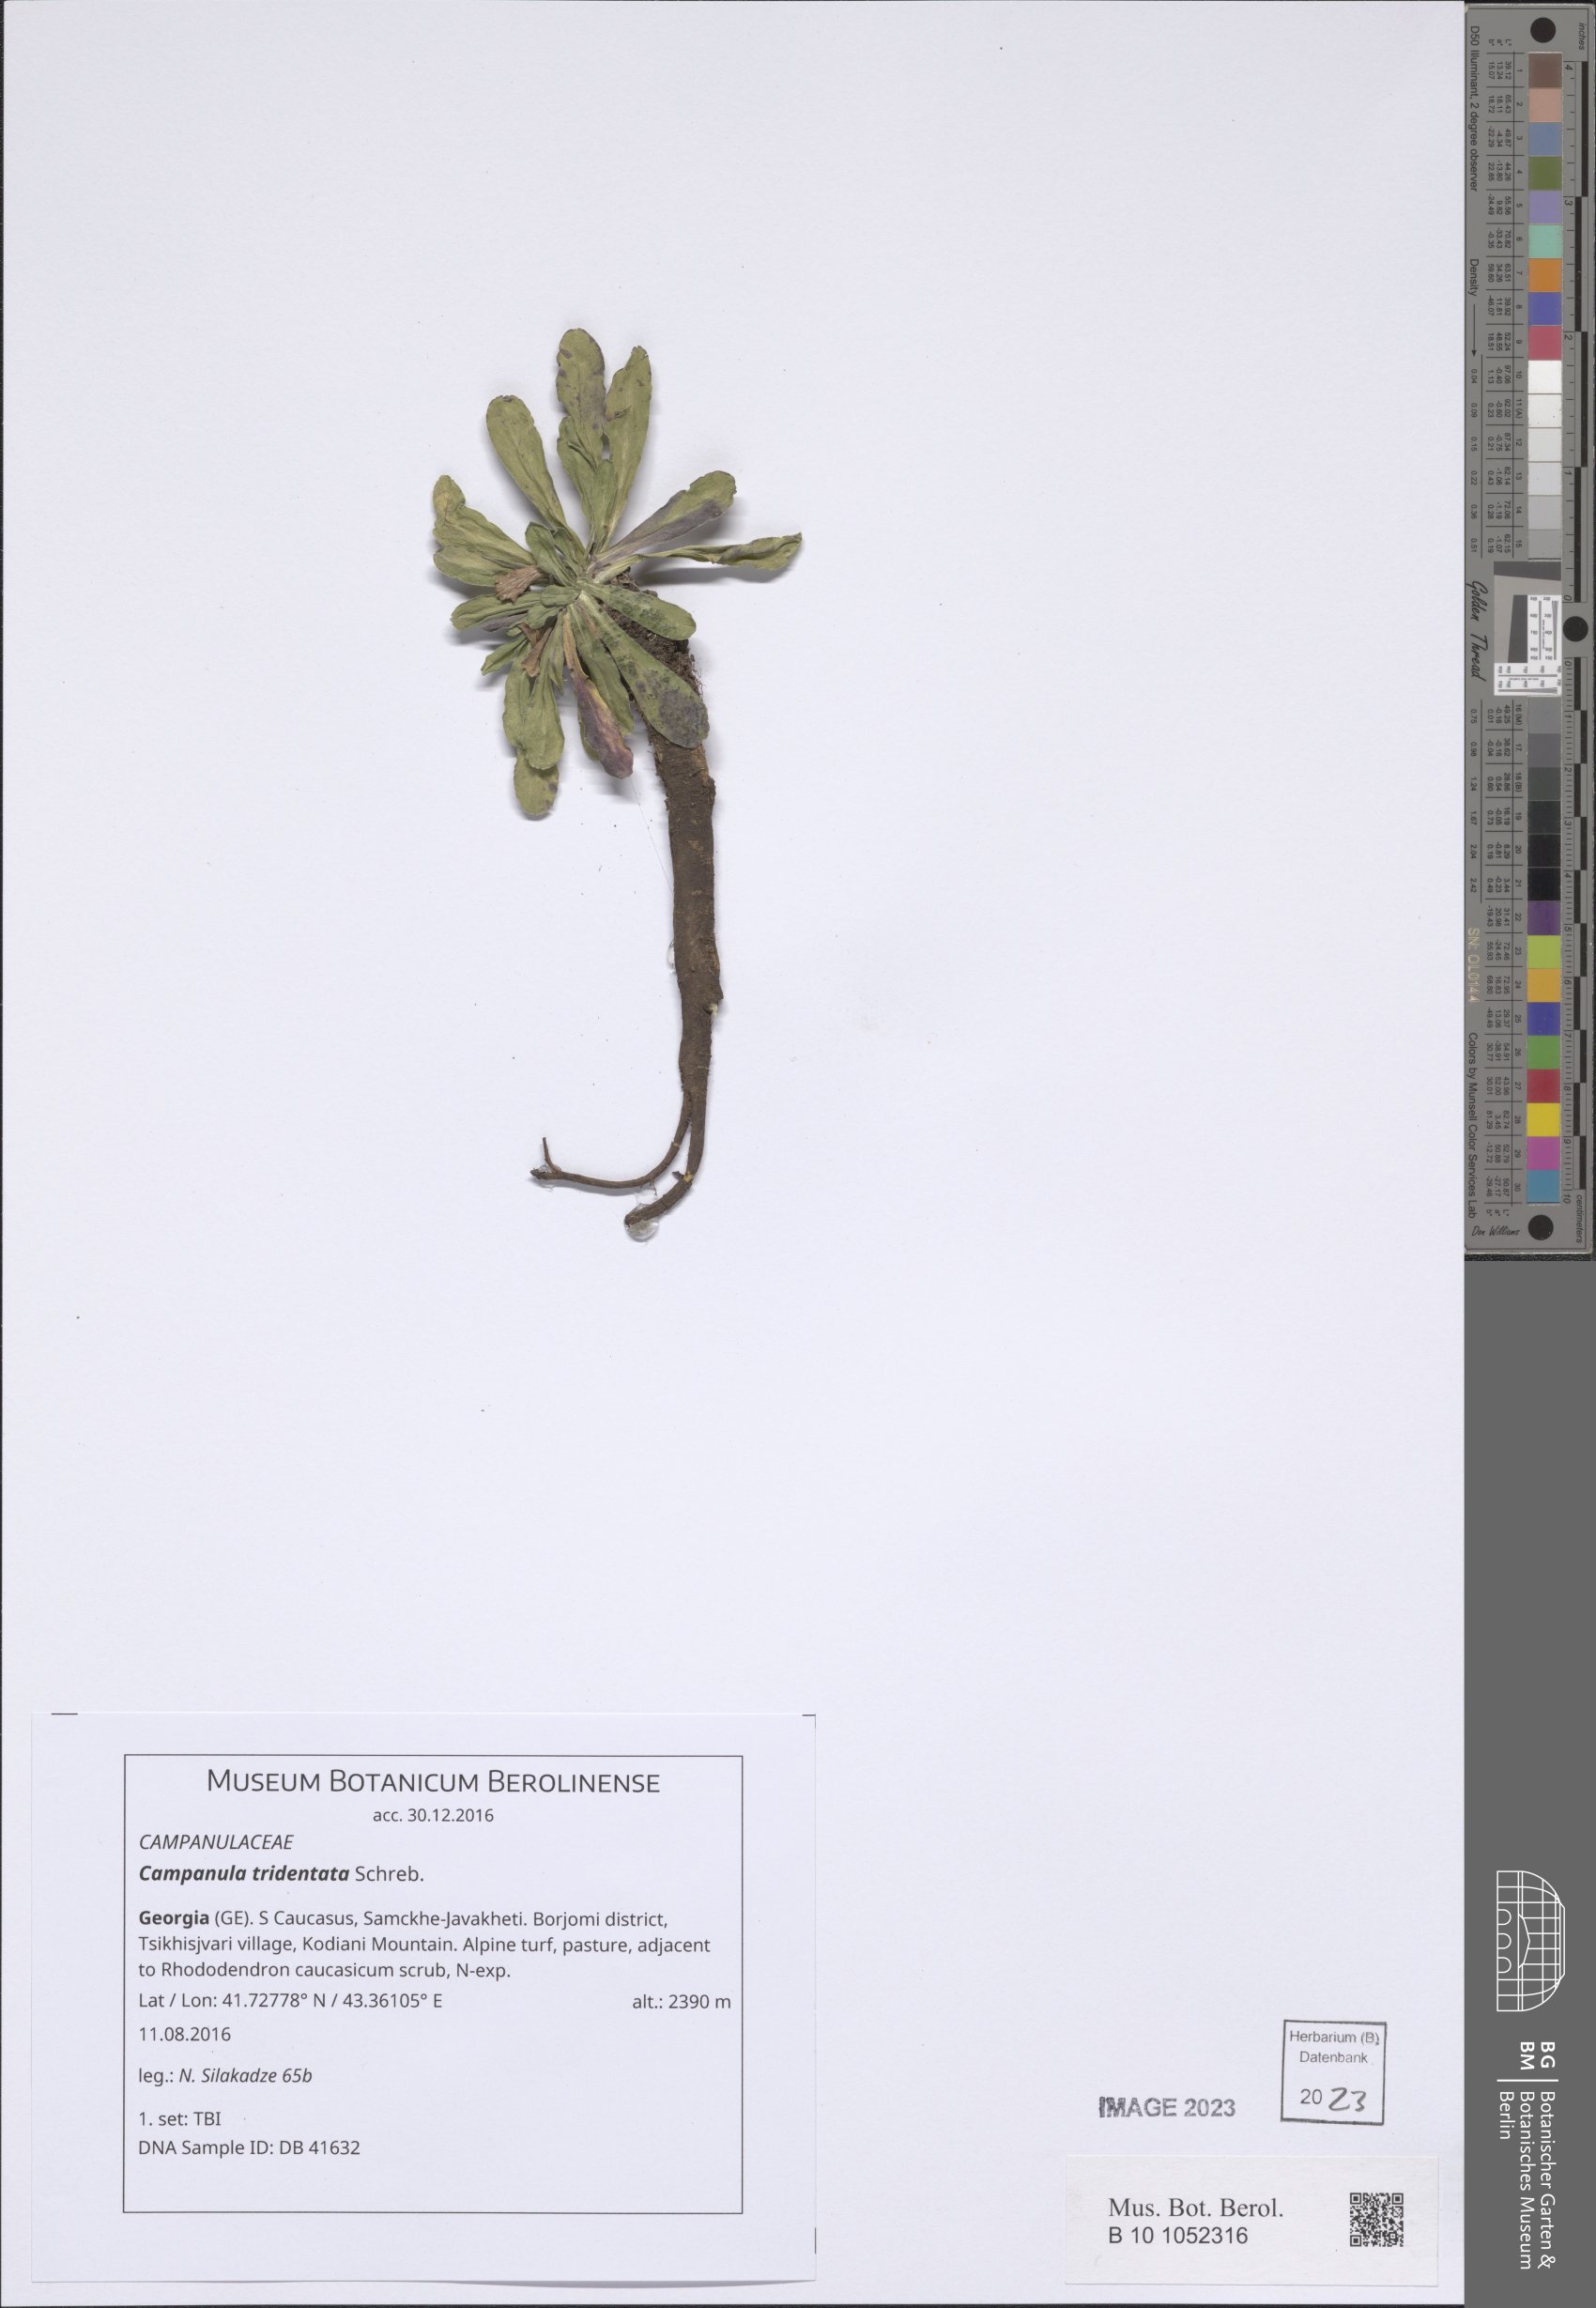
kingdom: Plantae
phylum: Tracheophyta
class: Magnoliopsida
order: Asterales
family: Campanulaceae
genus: Campanula
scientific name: Campanula tridentata
